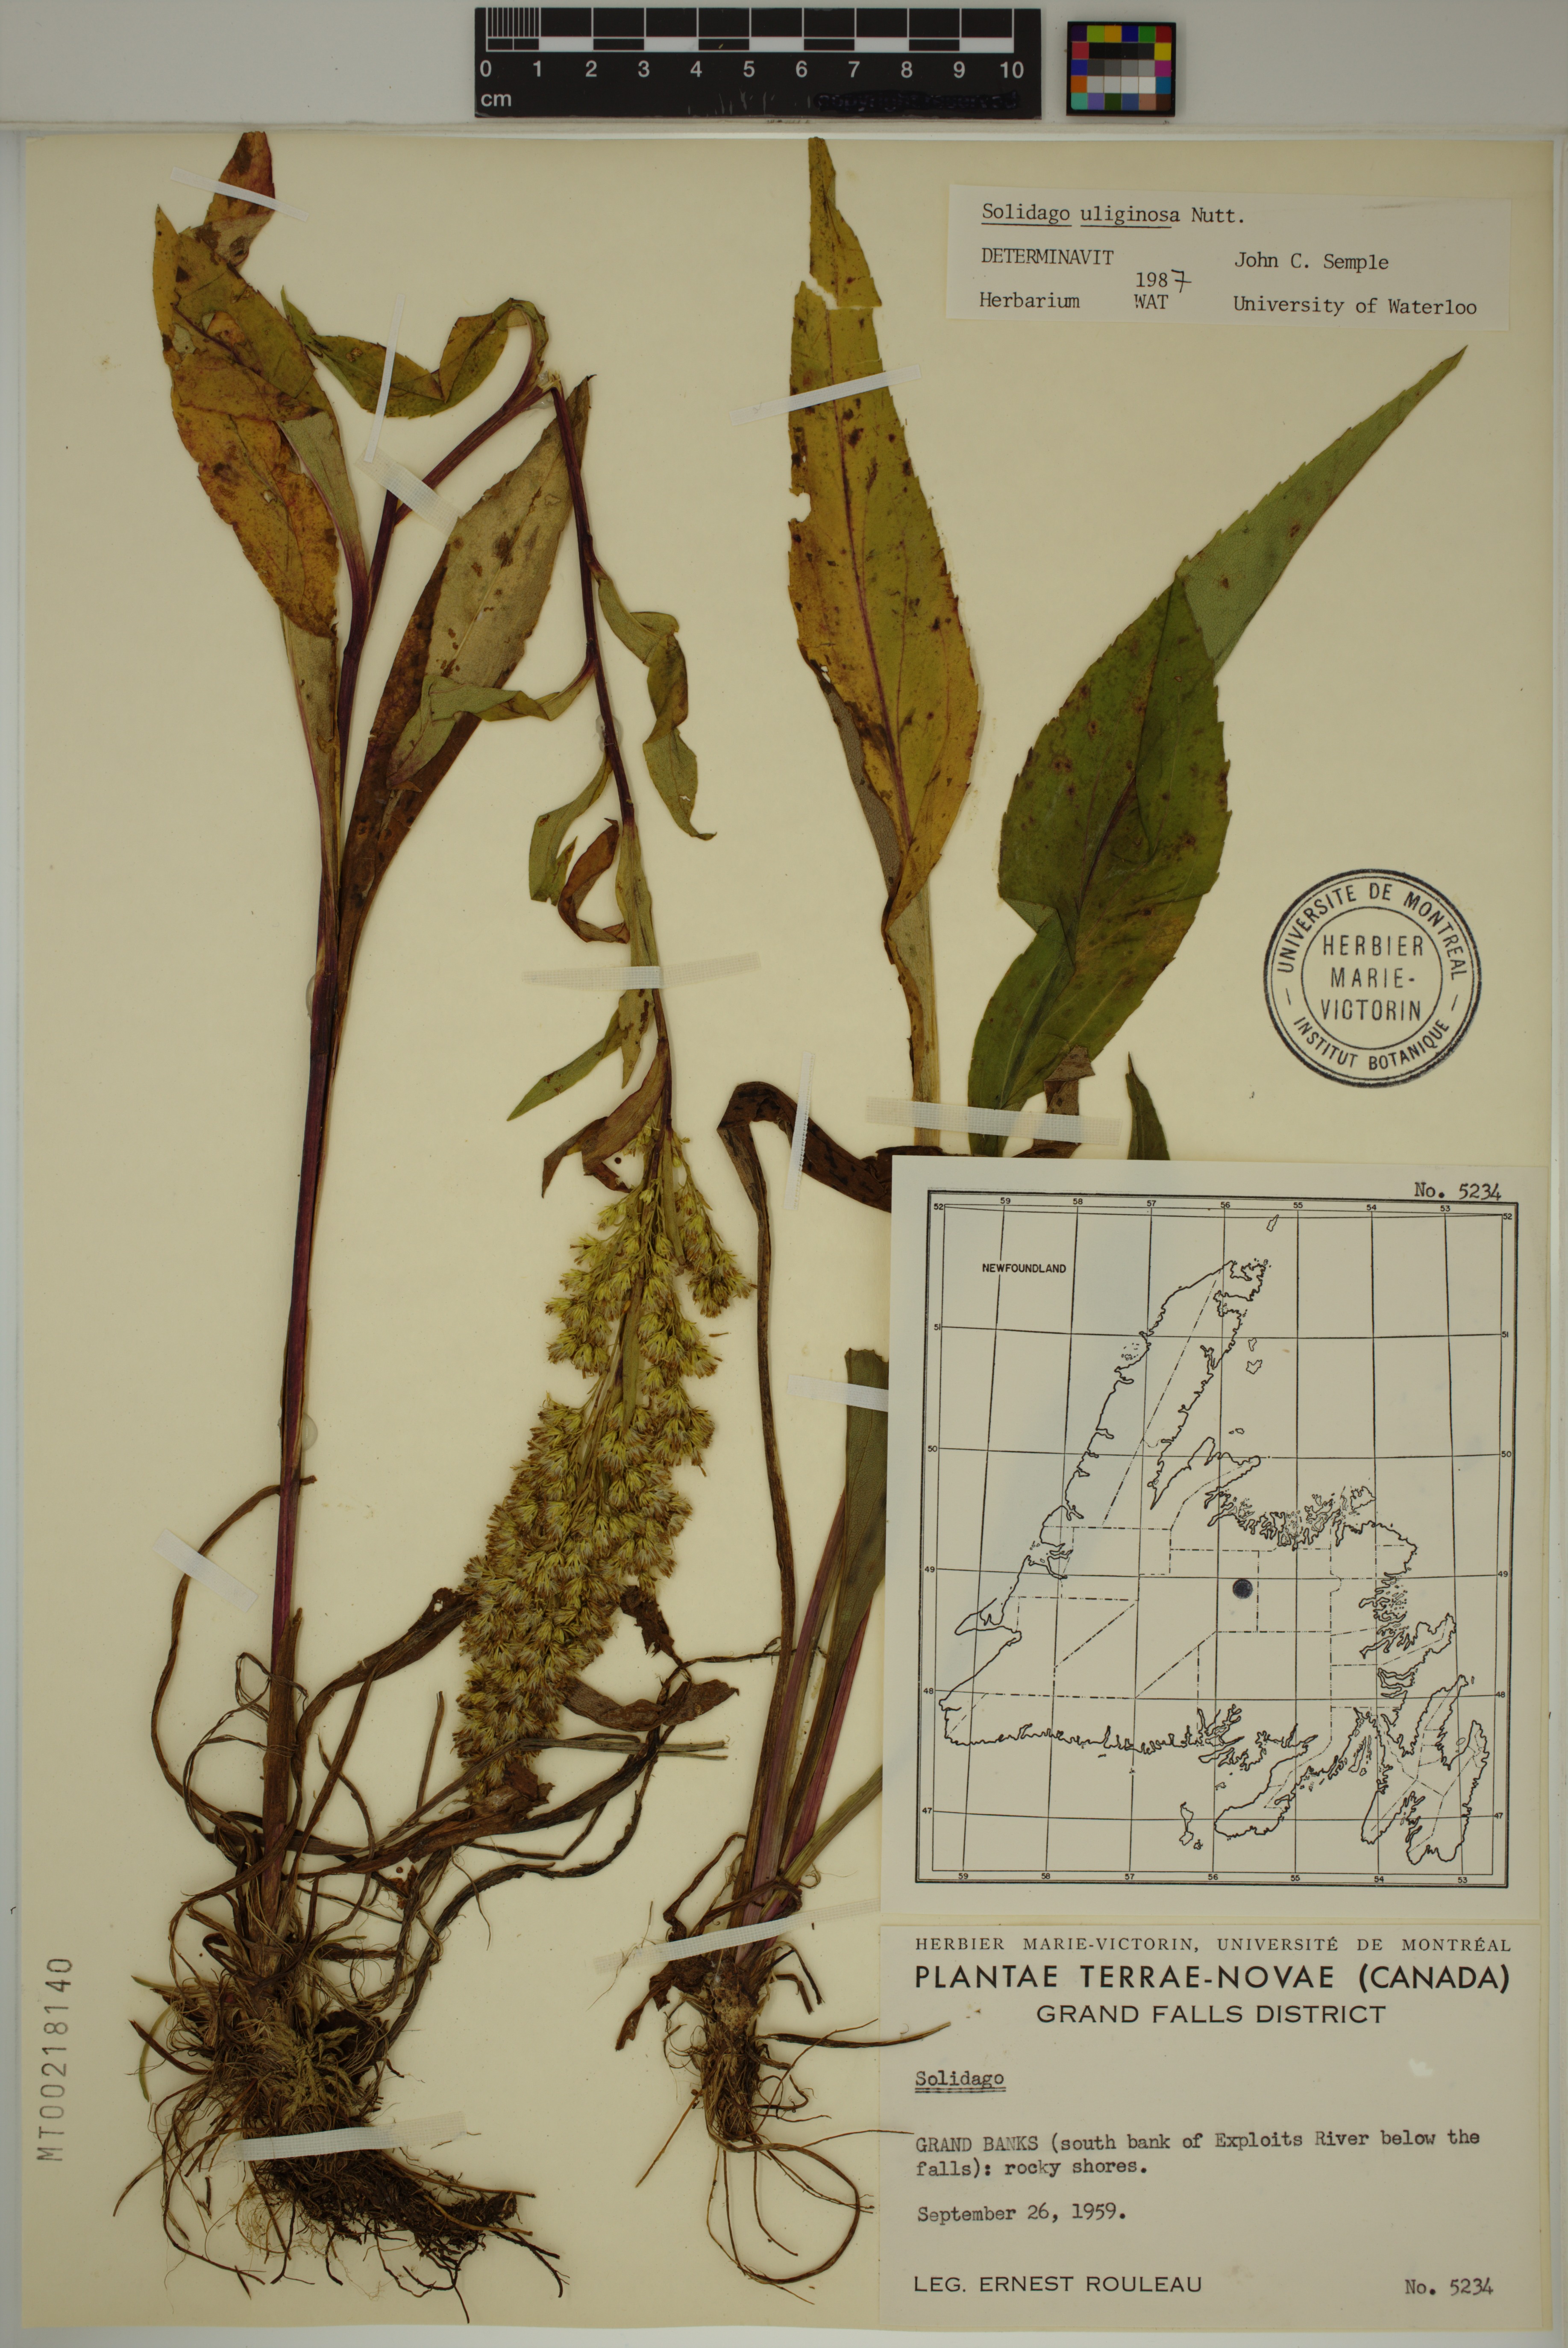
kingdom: Plantae
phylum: Tracheophyta
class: Magnoliopsida
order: Asterales
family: Asteraceae
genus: Solidago
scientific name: Solidago uliginosa
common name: Bog goldenrod
